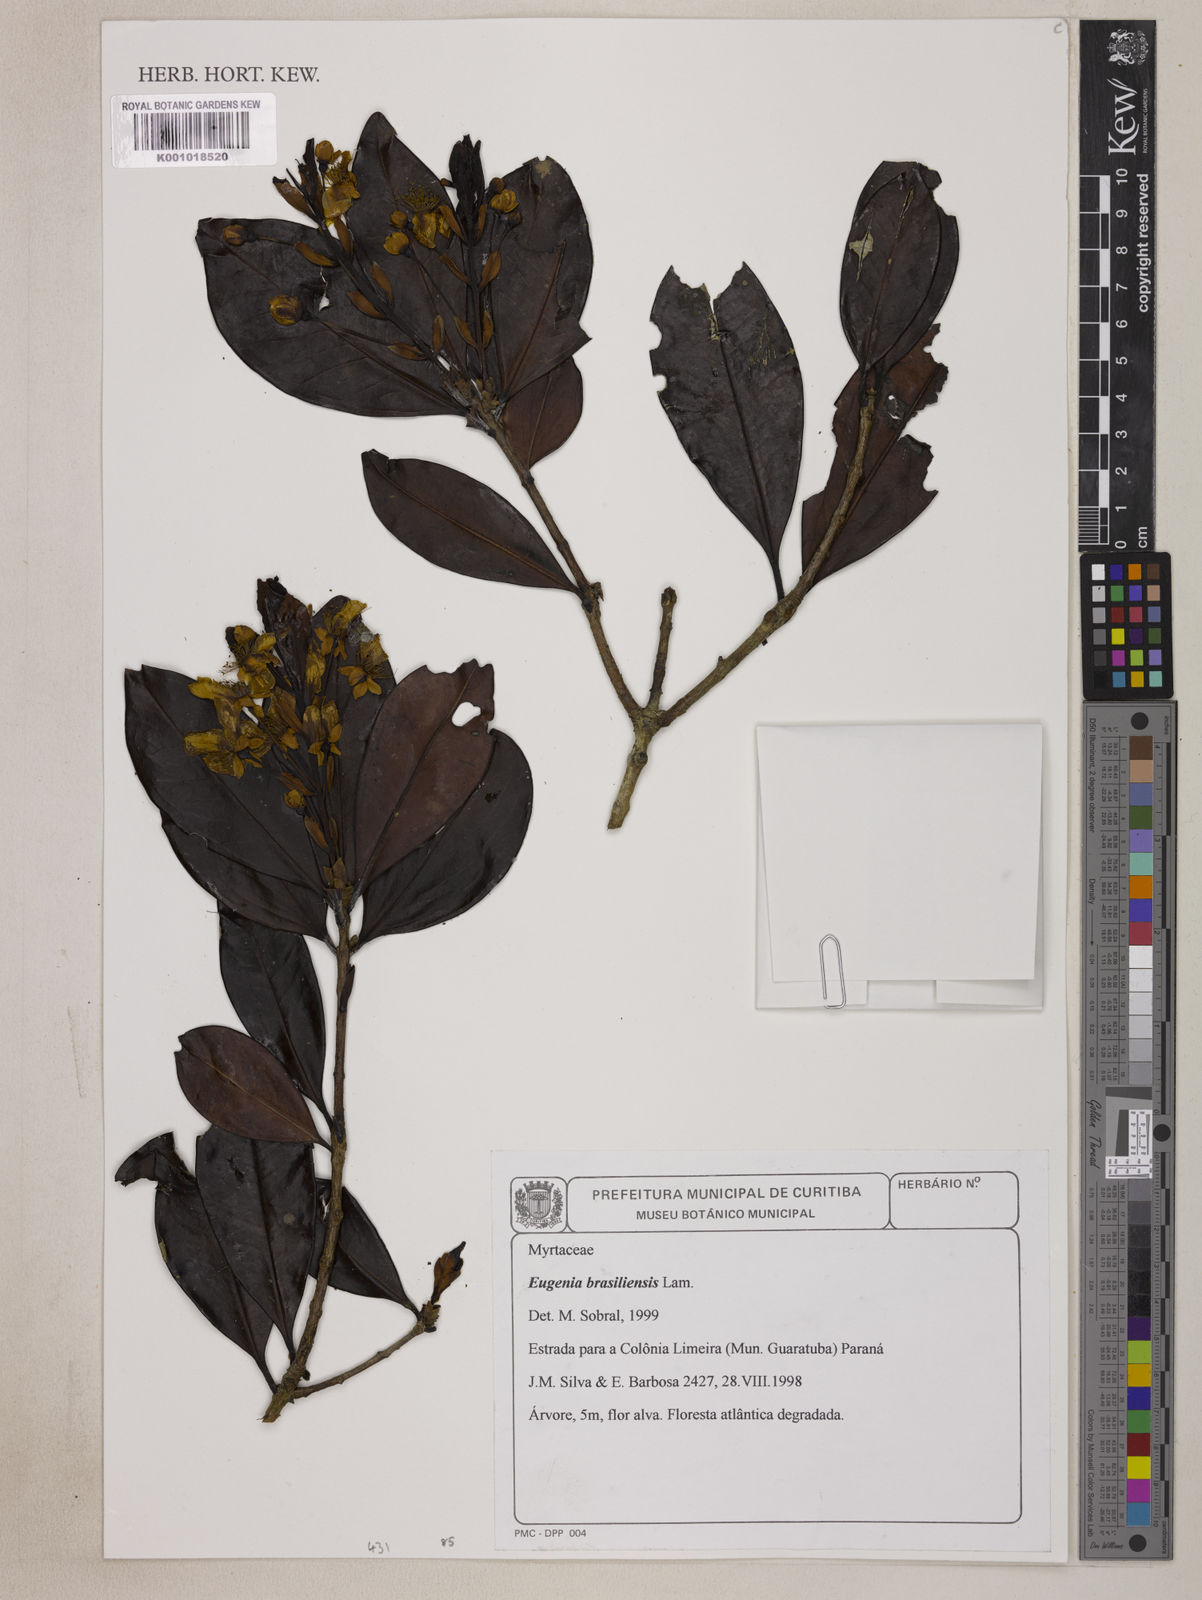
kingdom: Plantae
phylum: Tracheophyta
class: Magnoliopsida
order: Myrtales
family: Myrtaceae
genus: Eugenia
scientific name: Eugenia brasiliensis
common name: Grumichama
